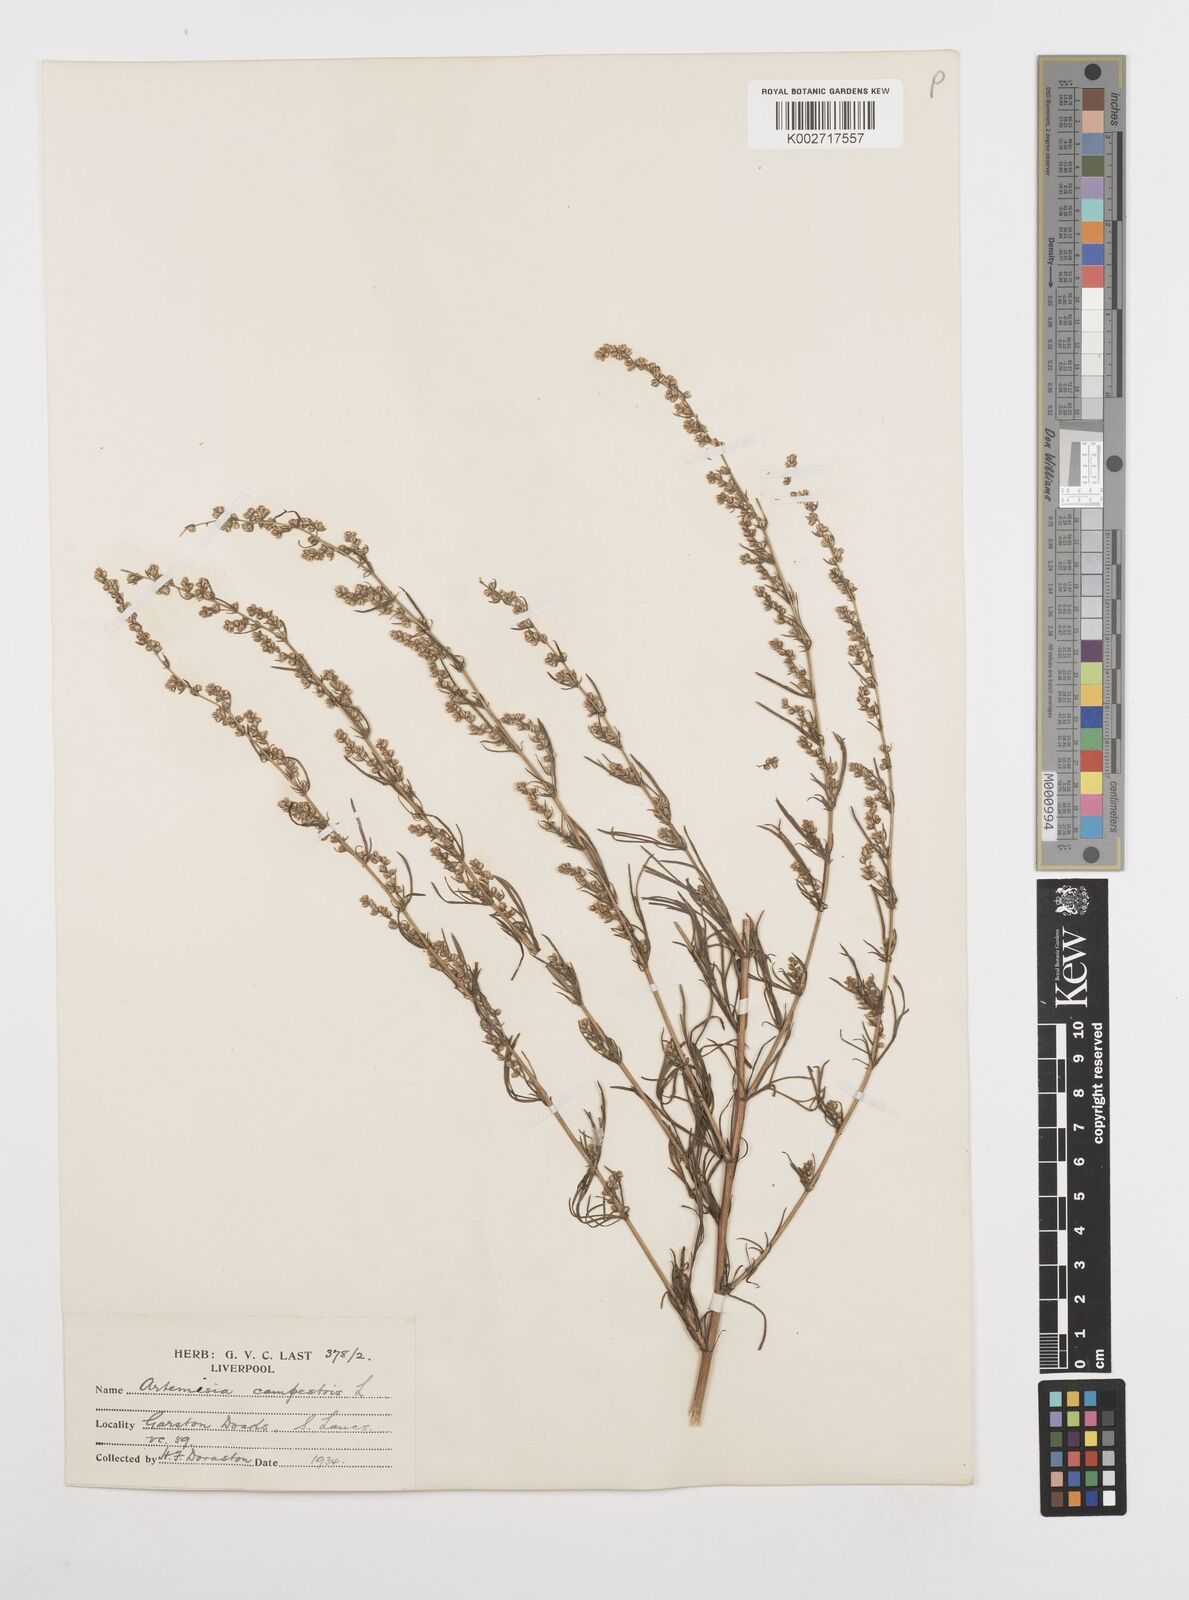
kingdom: Plantae
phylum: Tracheophyta
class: Magnoliopsida
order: Asterales
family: Asteraceae
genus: Artemisia
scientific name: Artemisia campestris
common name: Field wormwood
